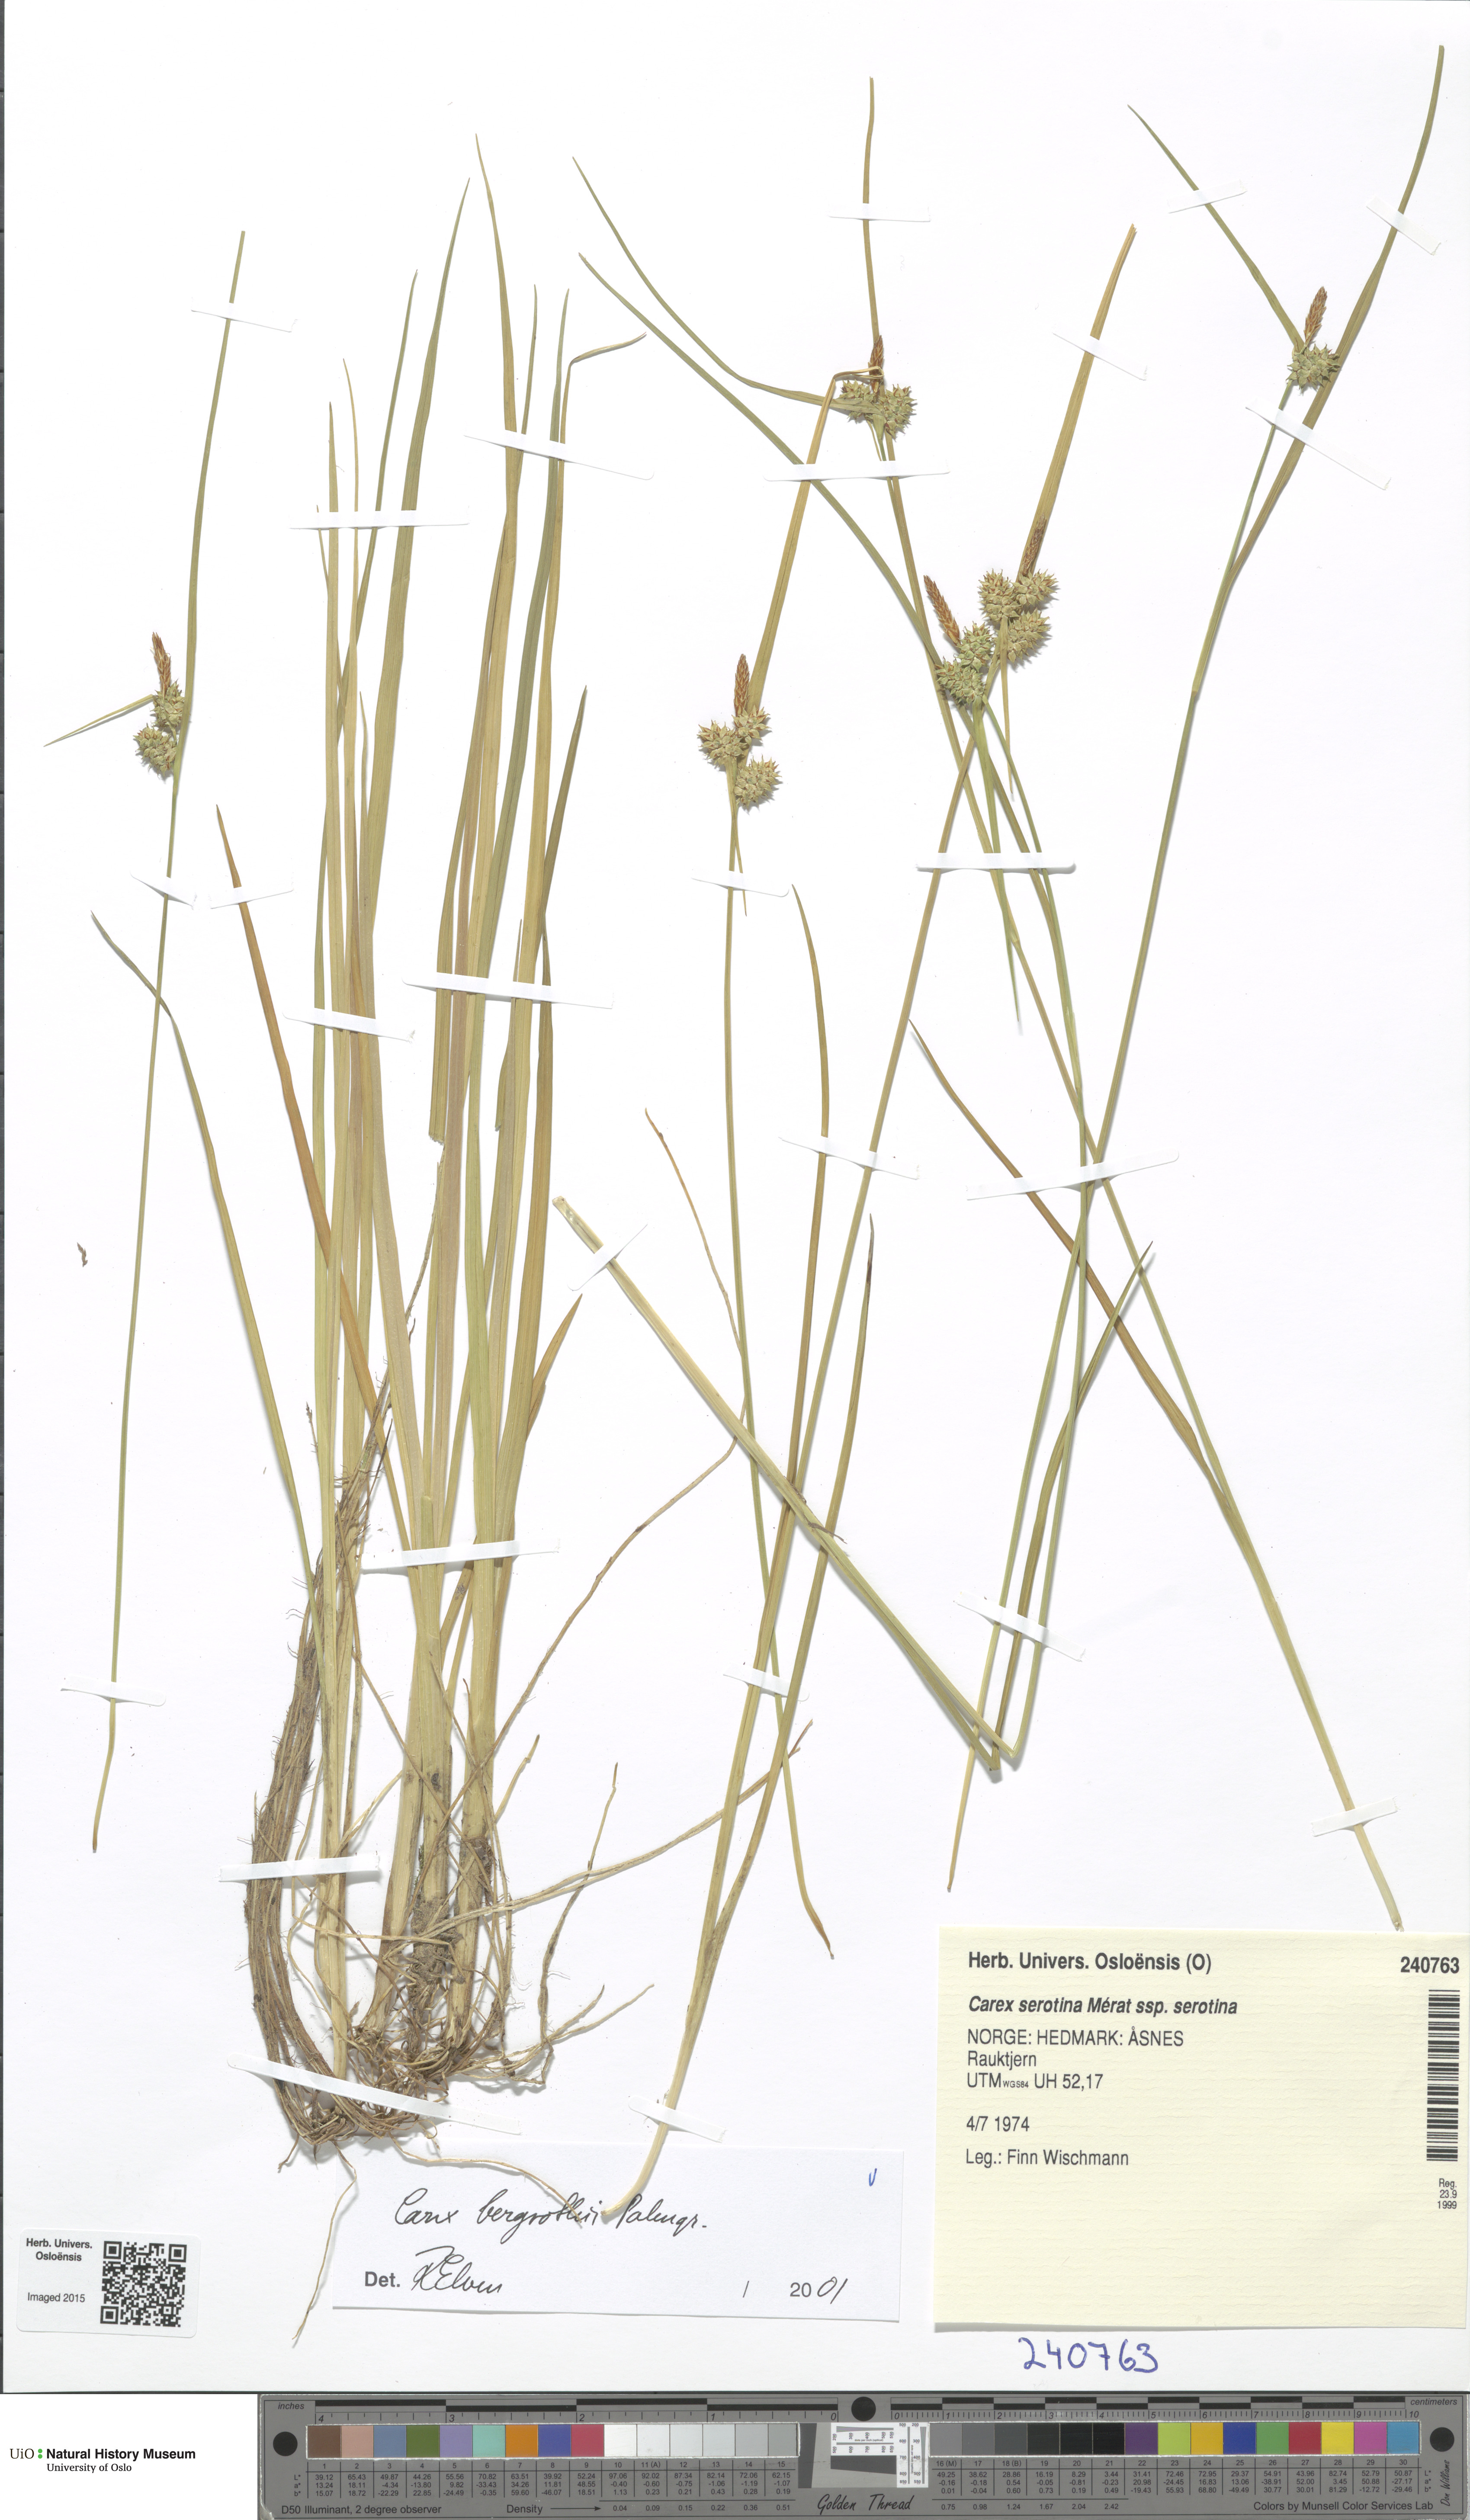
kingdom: Plantae
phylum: Tracheophyta
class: Liliopsida
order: Poales
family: Cyperaceae
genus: Carex
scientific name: Carex quasibergrothii
